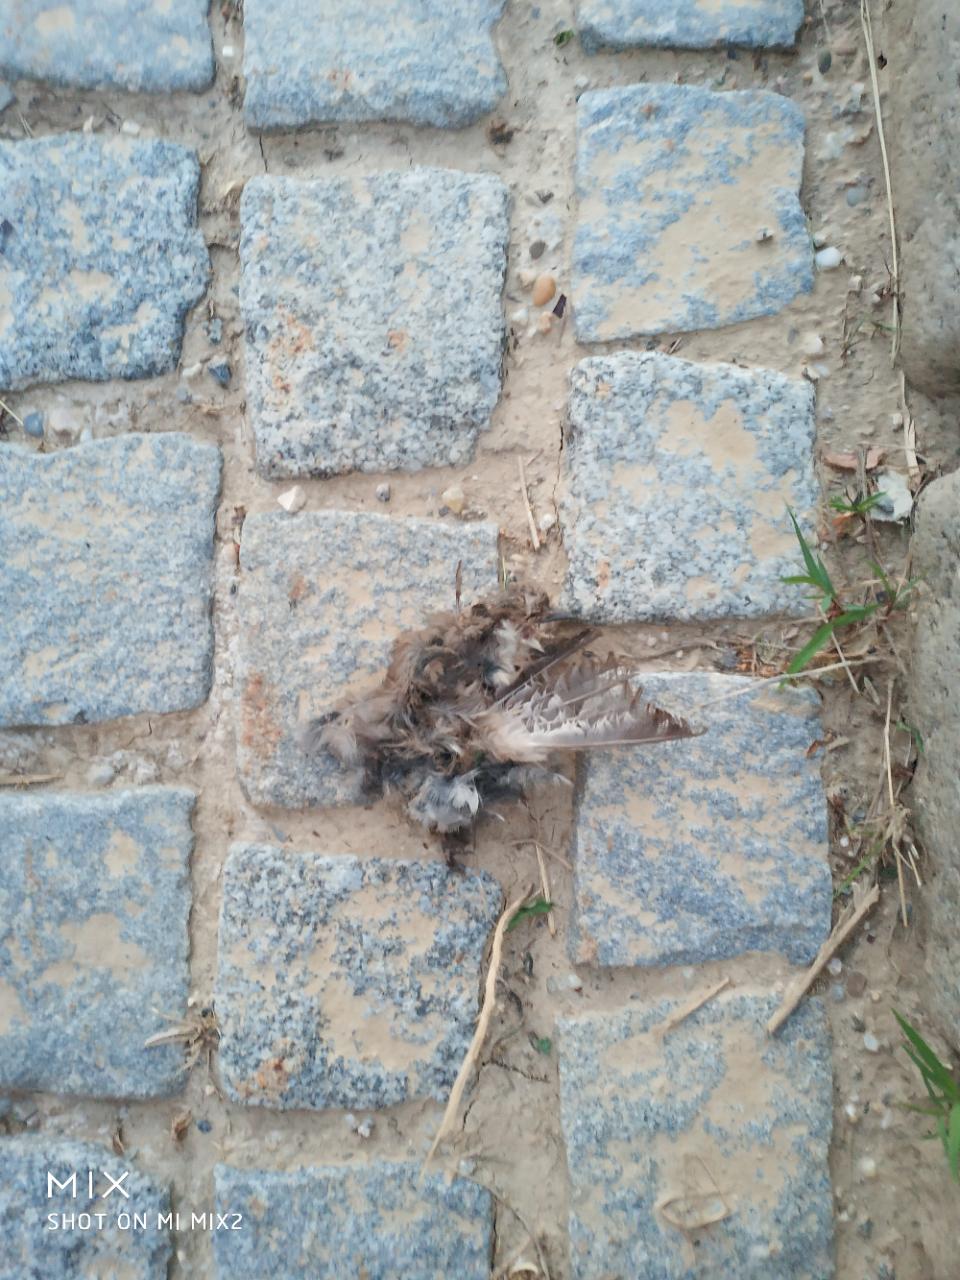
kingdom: Animalia
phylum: Chordata
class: Aves
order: Passeriformes
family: Passeridae
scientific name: Passeridae
